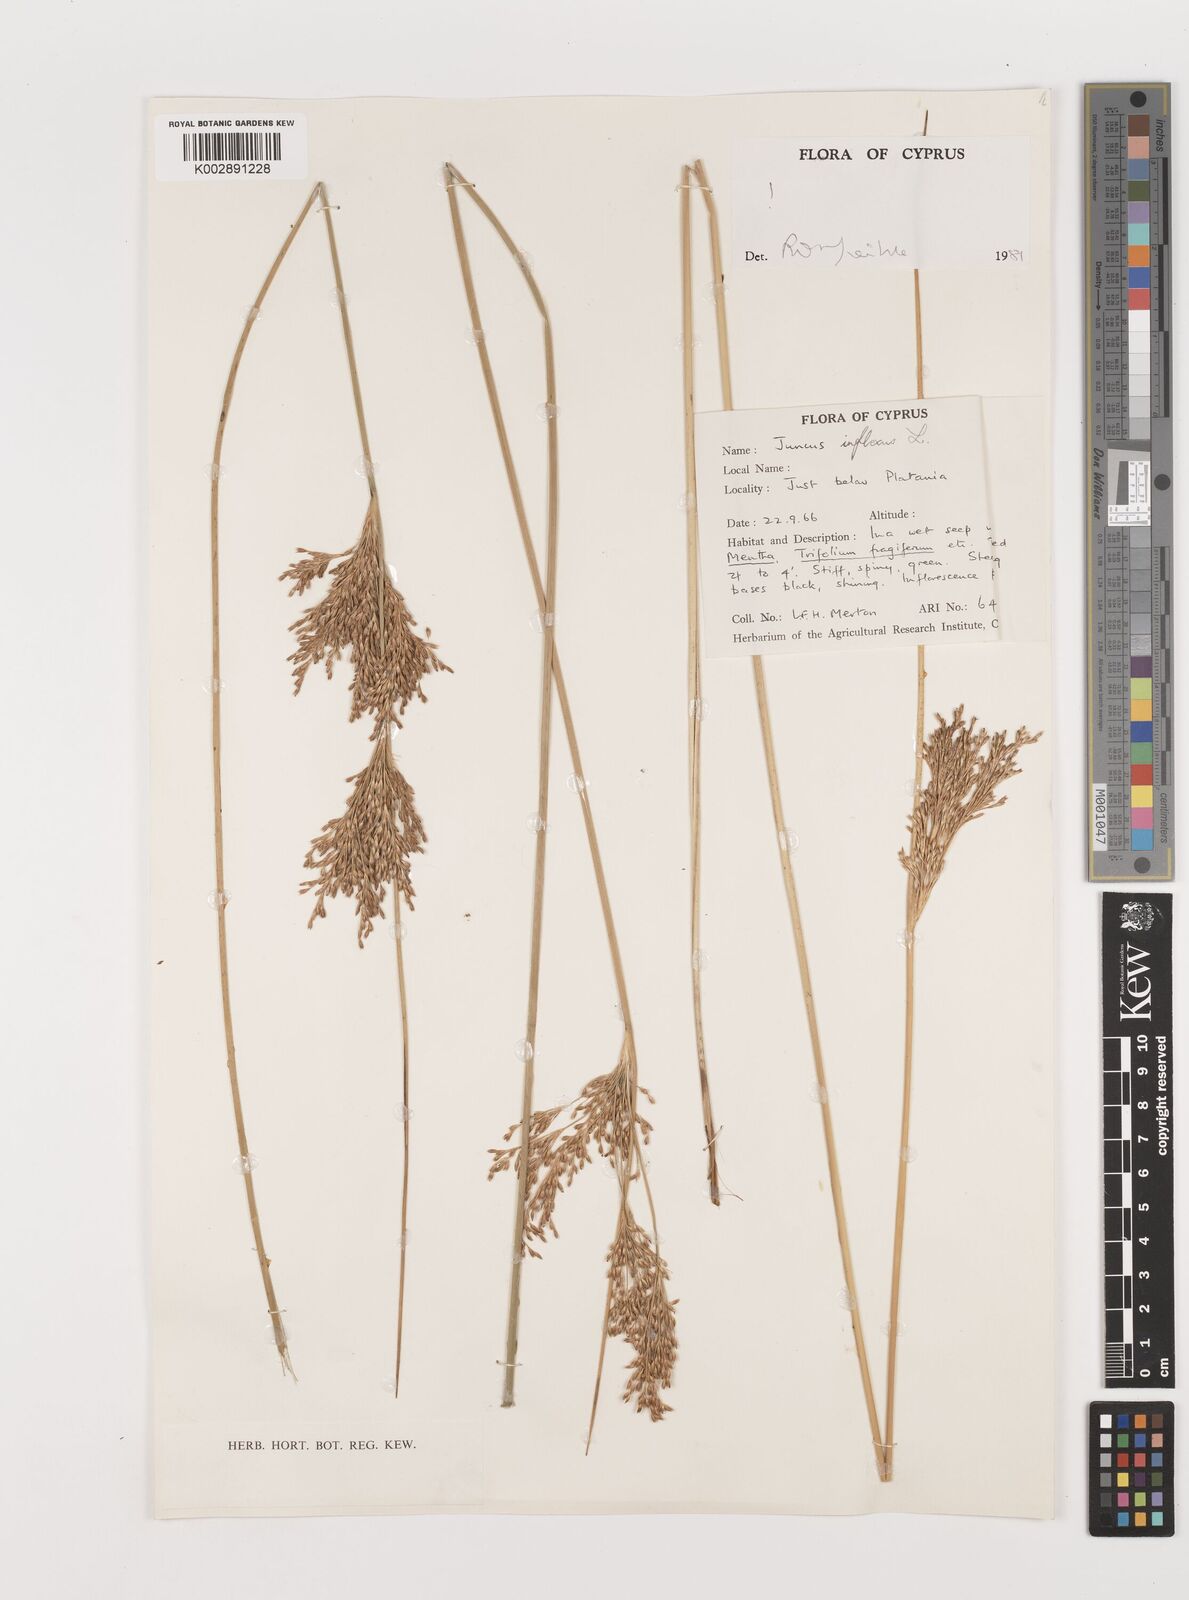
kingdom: Plantae
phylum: Tracheophyta
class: Liliopsida
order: Poales
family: Juncaceae
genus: Juncus
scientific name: Juncus inflexus
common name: Hard rush
